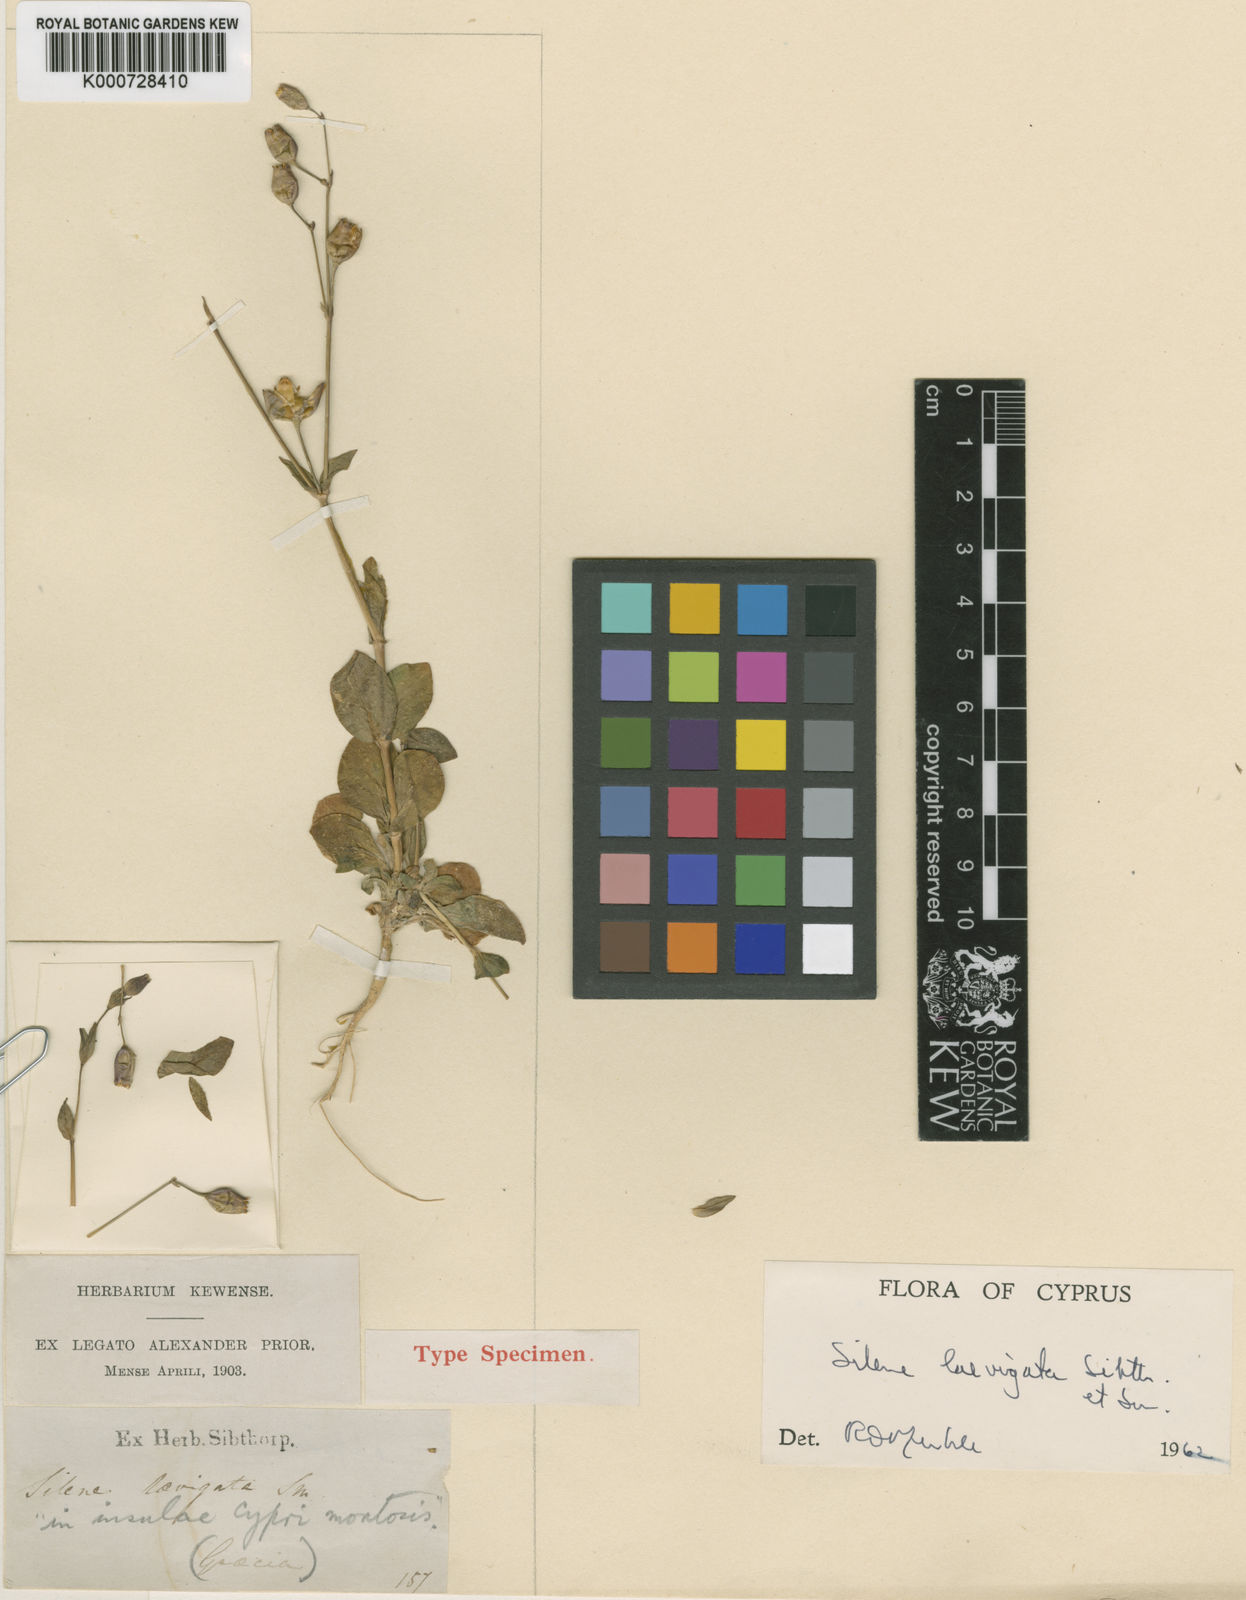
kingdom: Plantae
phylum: Tracheophyta
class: Magnoliopsida
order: Caryophyllales
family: Caryophyllaceae
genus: Silene
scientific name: Silene laevigata
